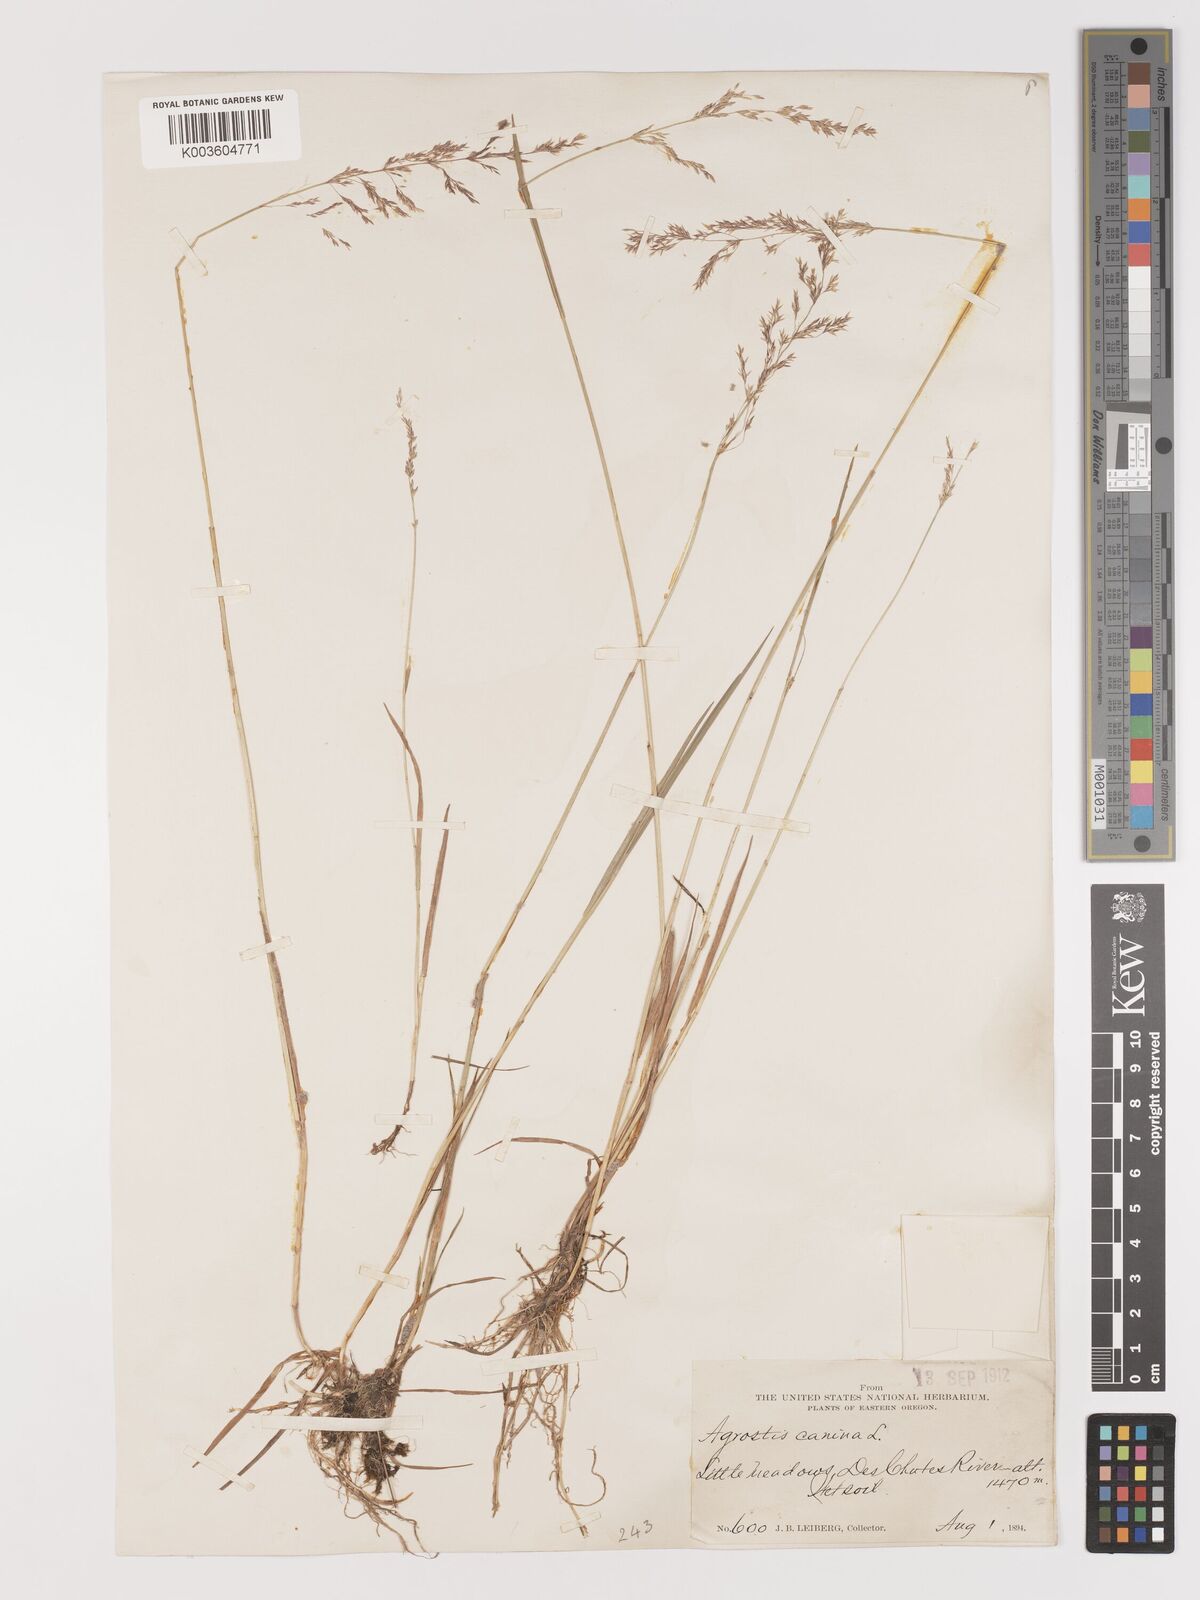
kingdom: Plantae
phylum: Tracheophyta
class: Liliopsida
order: Poales
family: Poaceae
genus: Agrostis
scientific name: Agrostis canina
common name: Velvet bent
